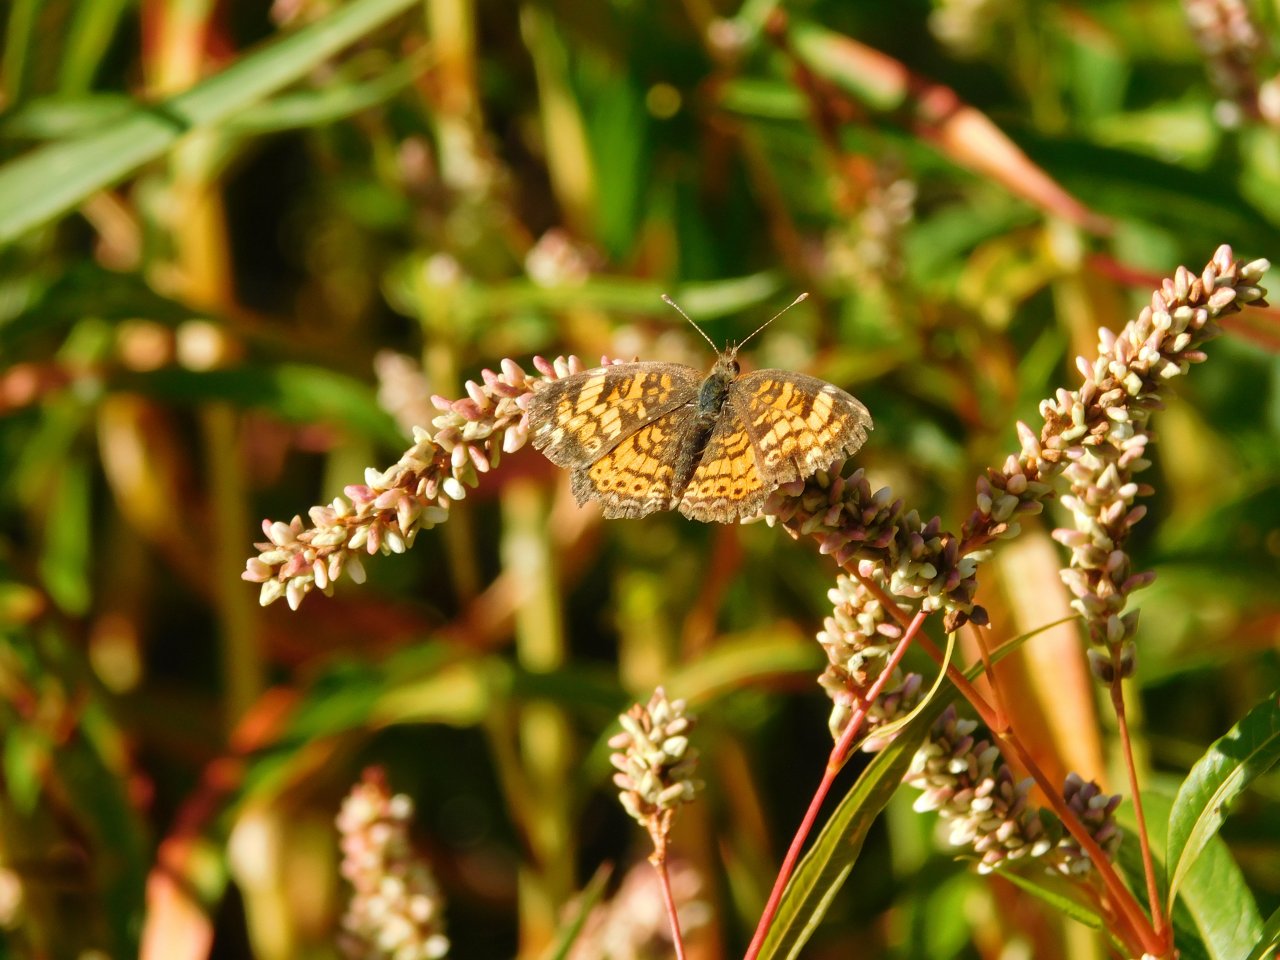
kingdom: Animalia
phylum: Arthropoda
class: Insecta
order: Lepidoptera
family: Nymphalidae
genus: Phyciodes
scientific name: Phyciodes tharos
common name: Northern Crescent
